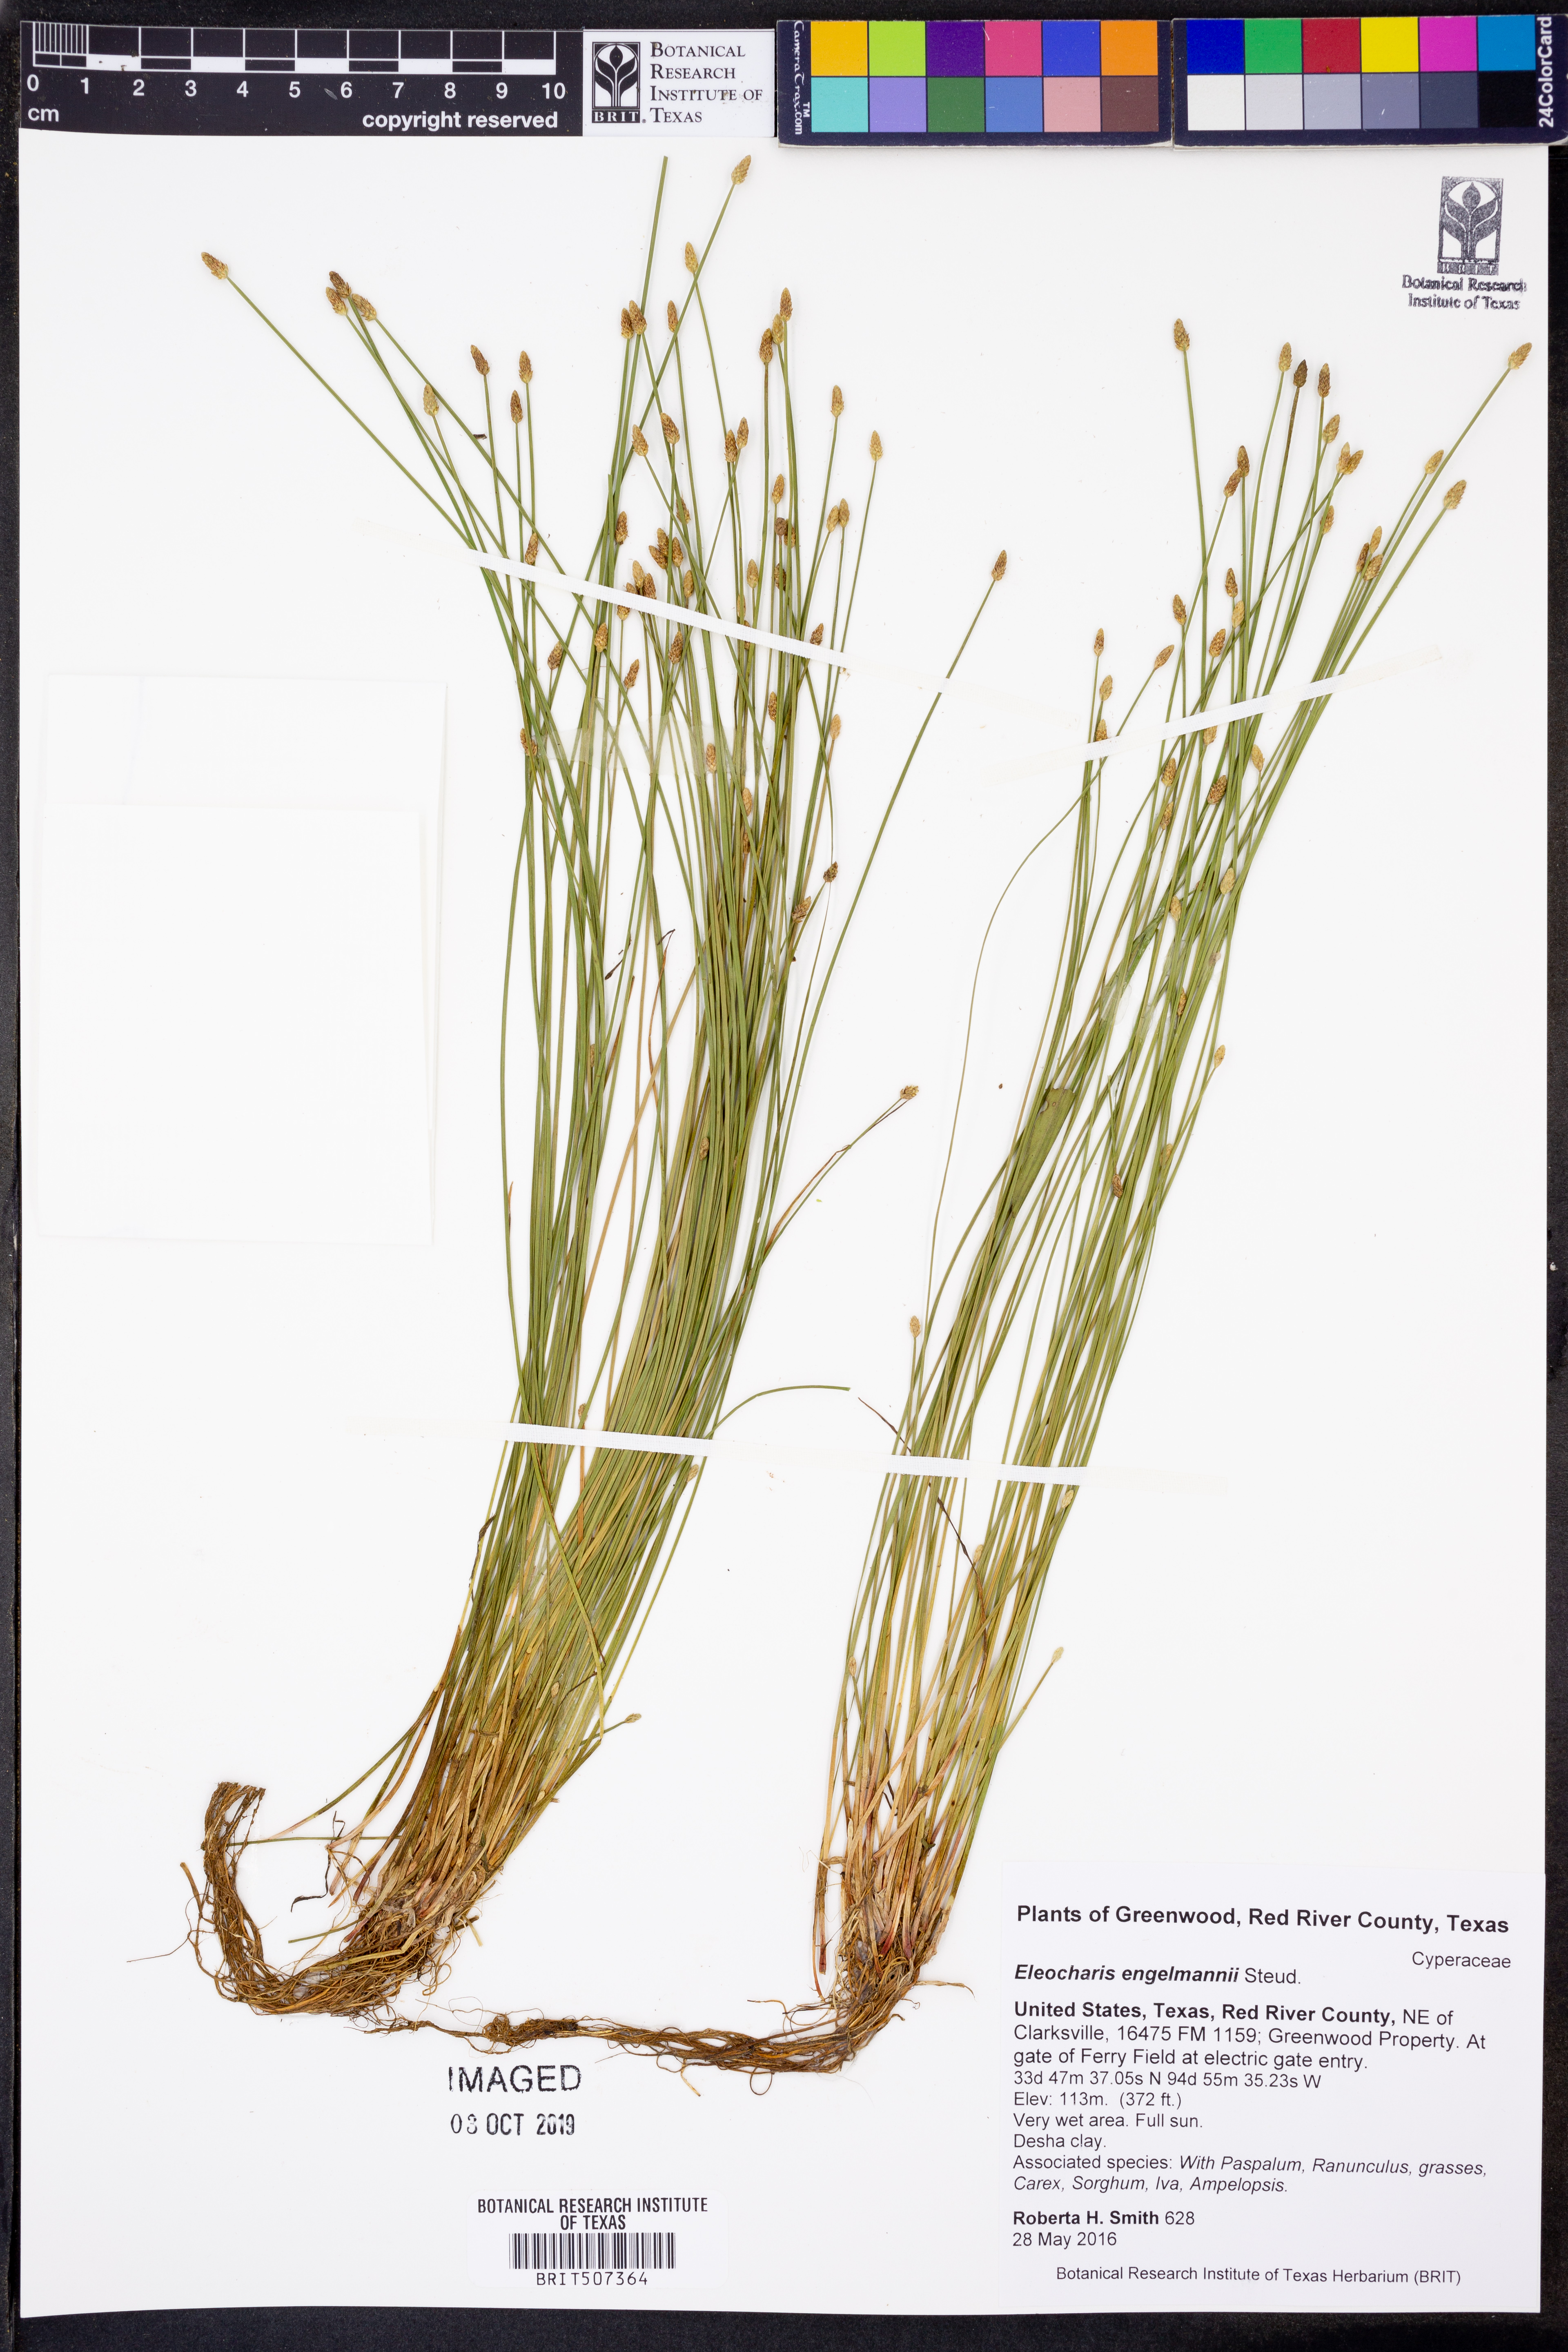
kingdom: Plantae
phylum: Tracheophyta
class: Liliopsida
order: Poales
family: Cyperaceae
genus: Eleocharis
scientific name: Eleocharis engelmannii
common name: Engelmann's spikerush
